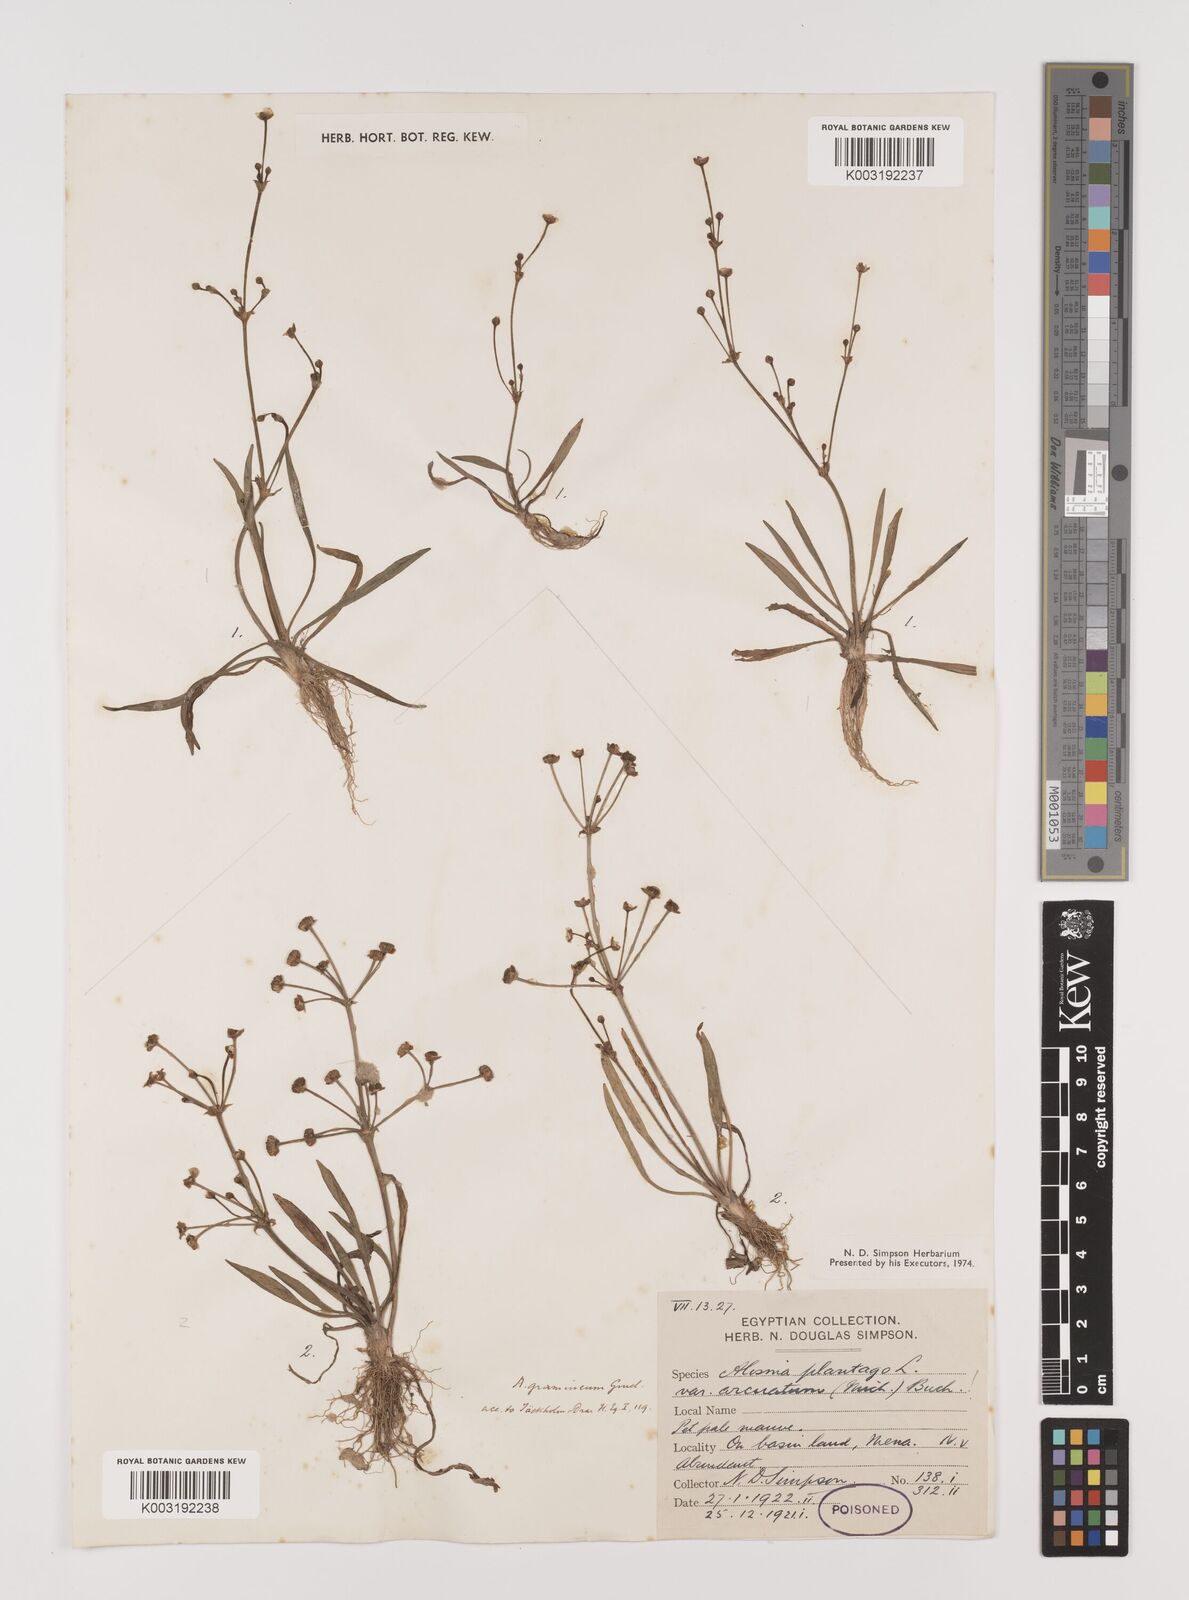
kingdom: Plantae
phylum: Tracheophyta
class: Liliopsida
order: Alismatales
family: Alismataceae
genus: Alisma
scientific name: Alisma gramineum
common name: Ribbon-leaved water-plantain
